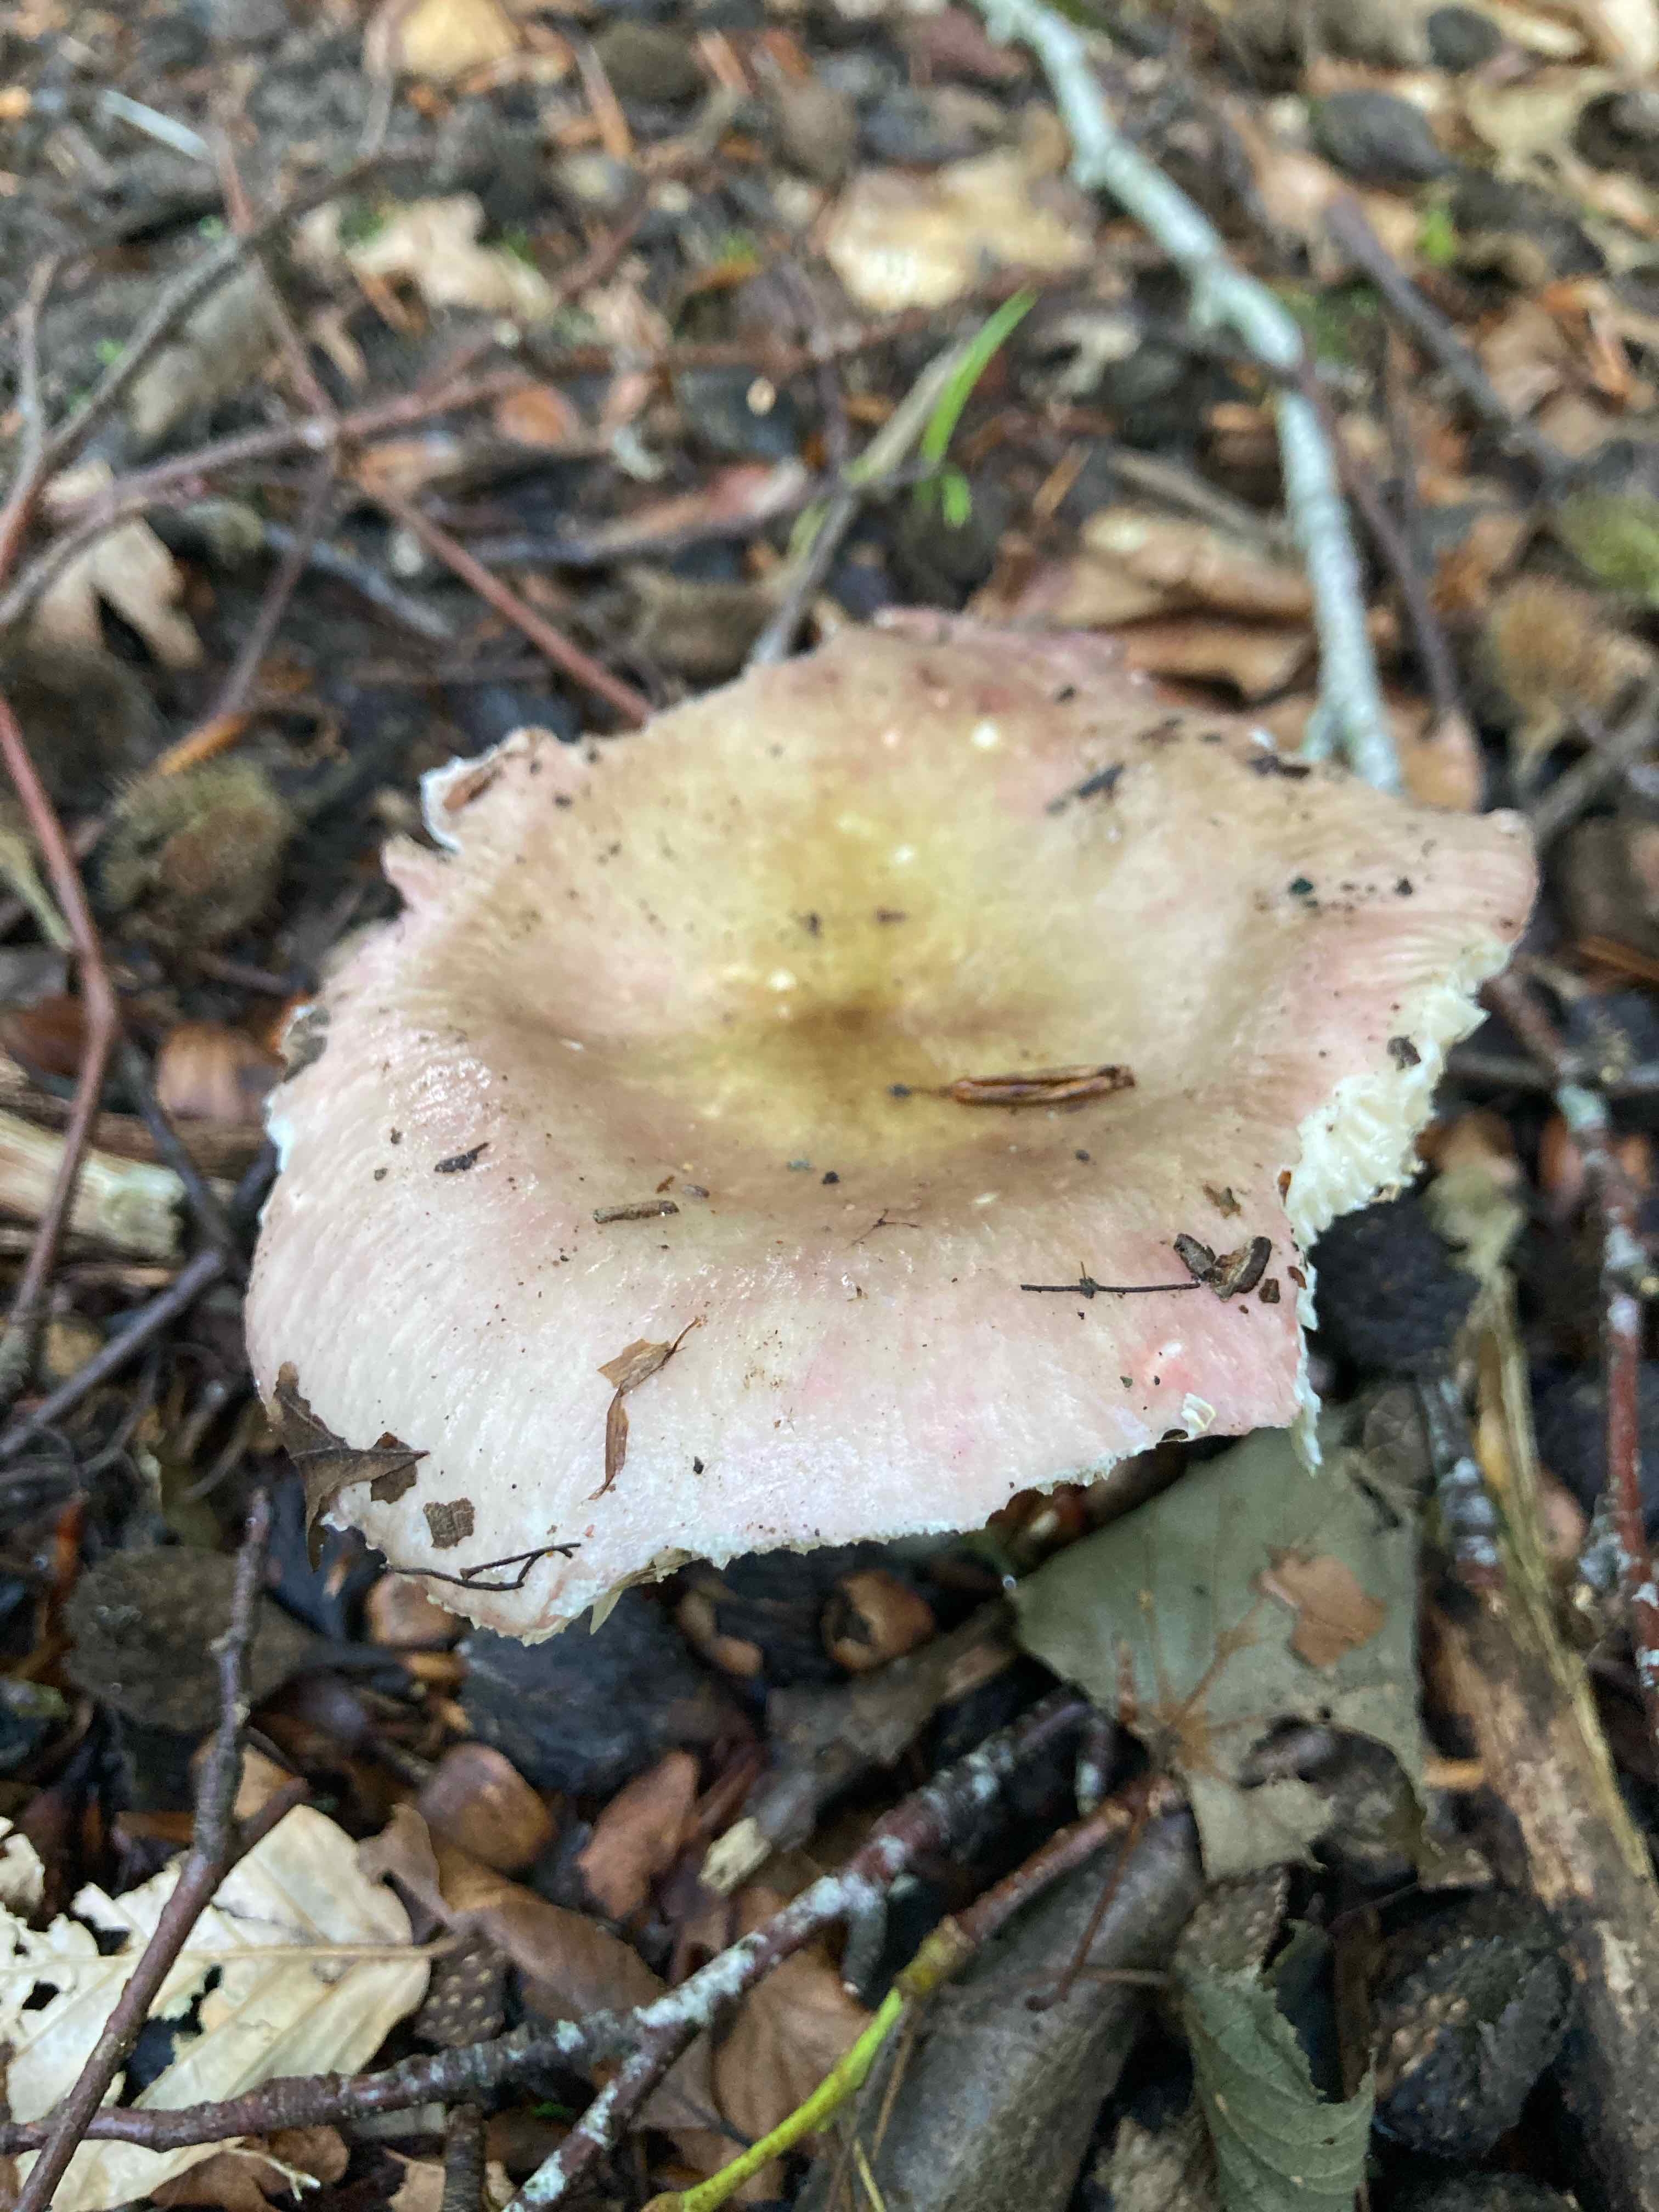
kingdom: Fungi
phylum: Basidiomycota
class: Agaricomycetes
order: Russulales
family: Russulaceae
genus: Russula
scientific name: Russula
